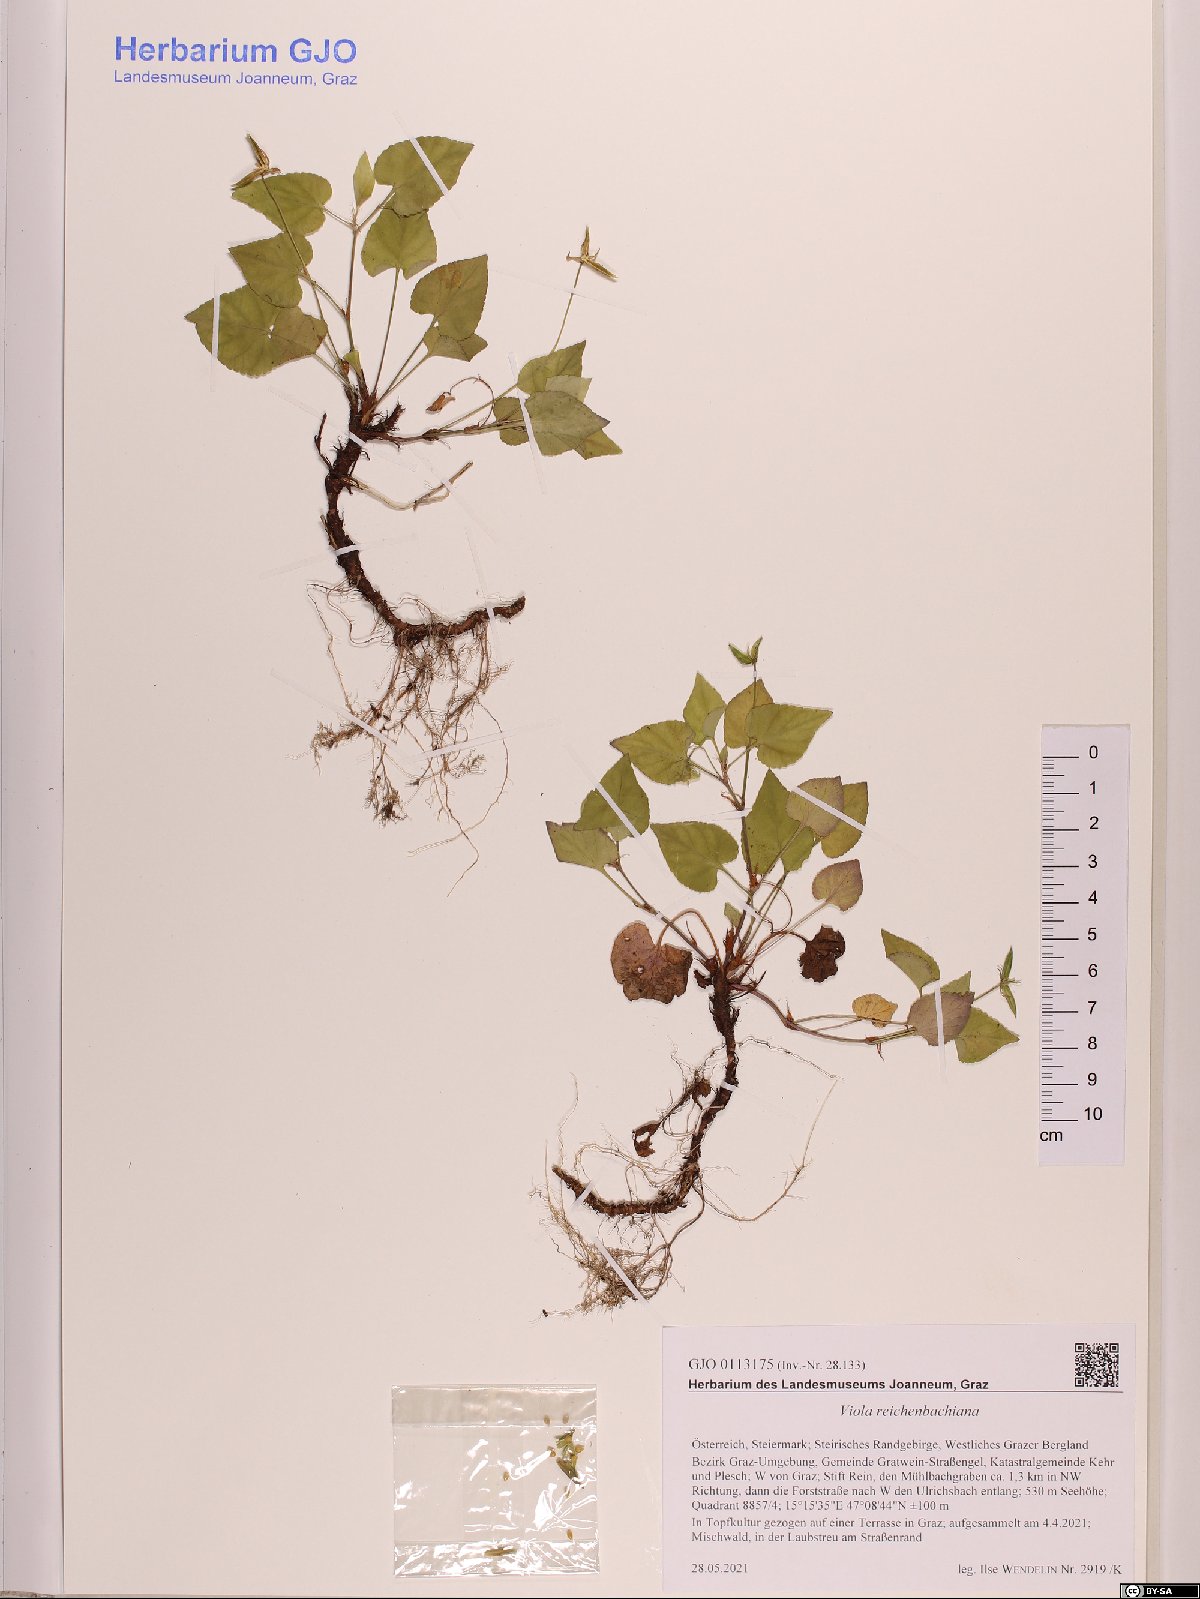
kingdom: Plantae
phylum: Tracheophyta
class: Magnoliopsida
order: Malpighiales
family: Violaceae
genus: Viola
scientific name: Viola reichenbachiana
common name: Early dog-violet
